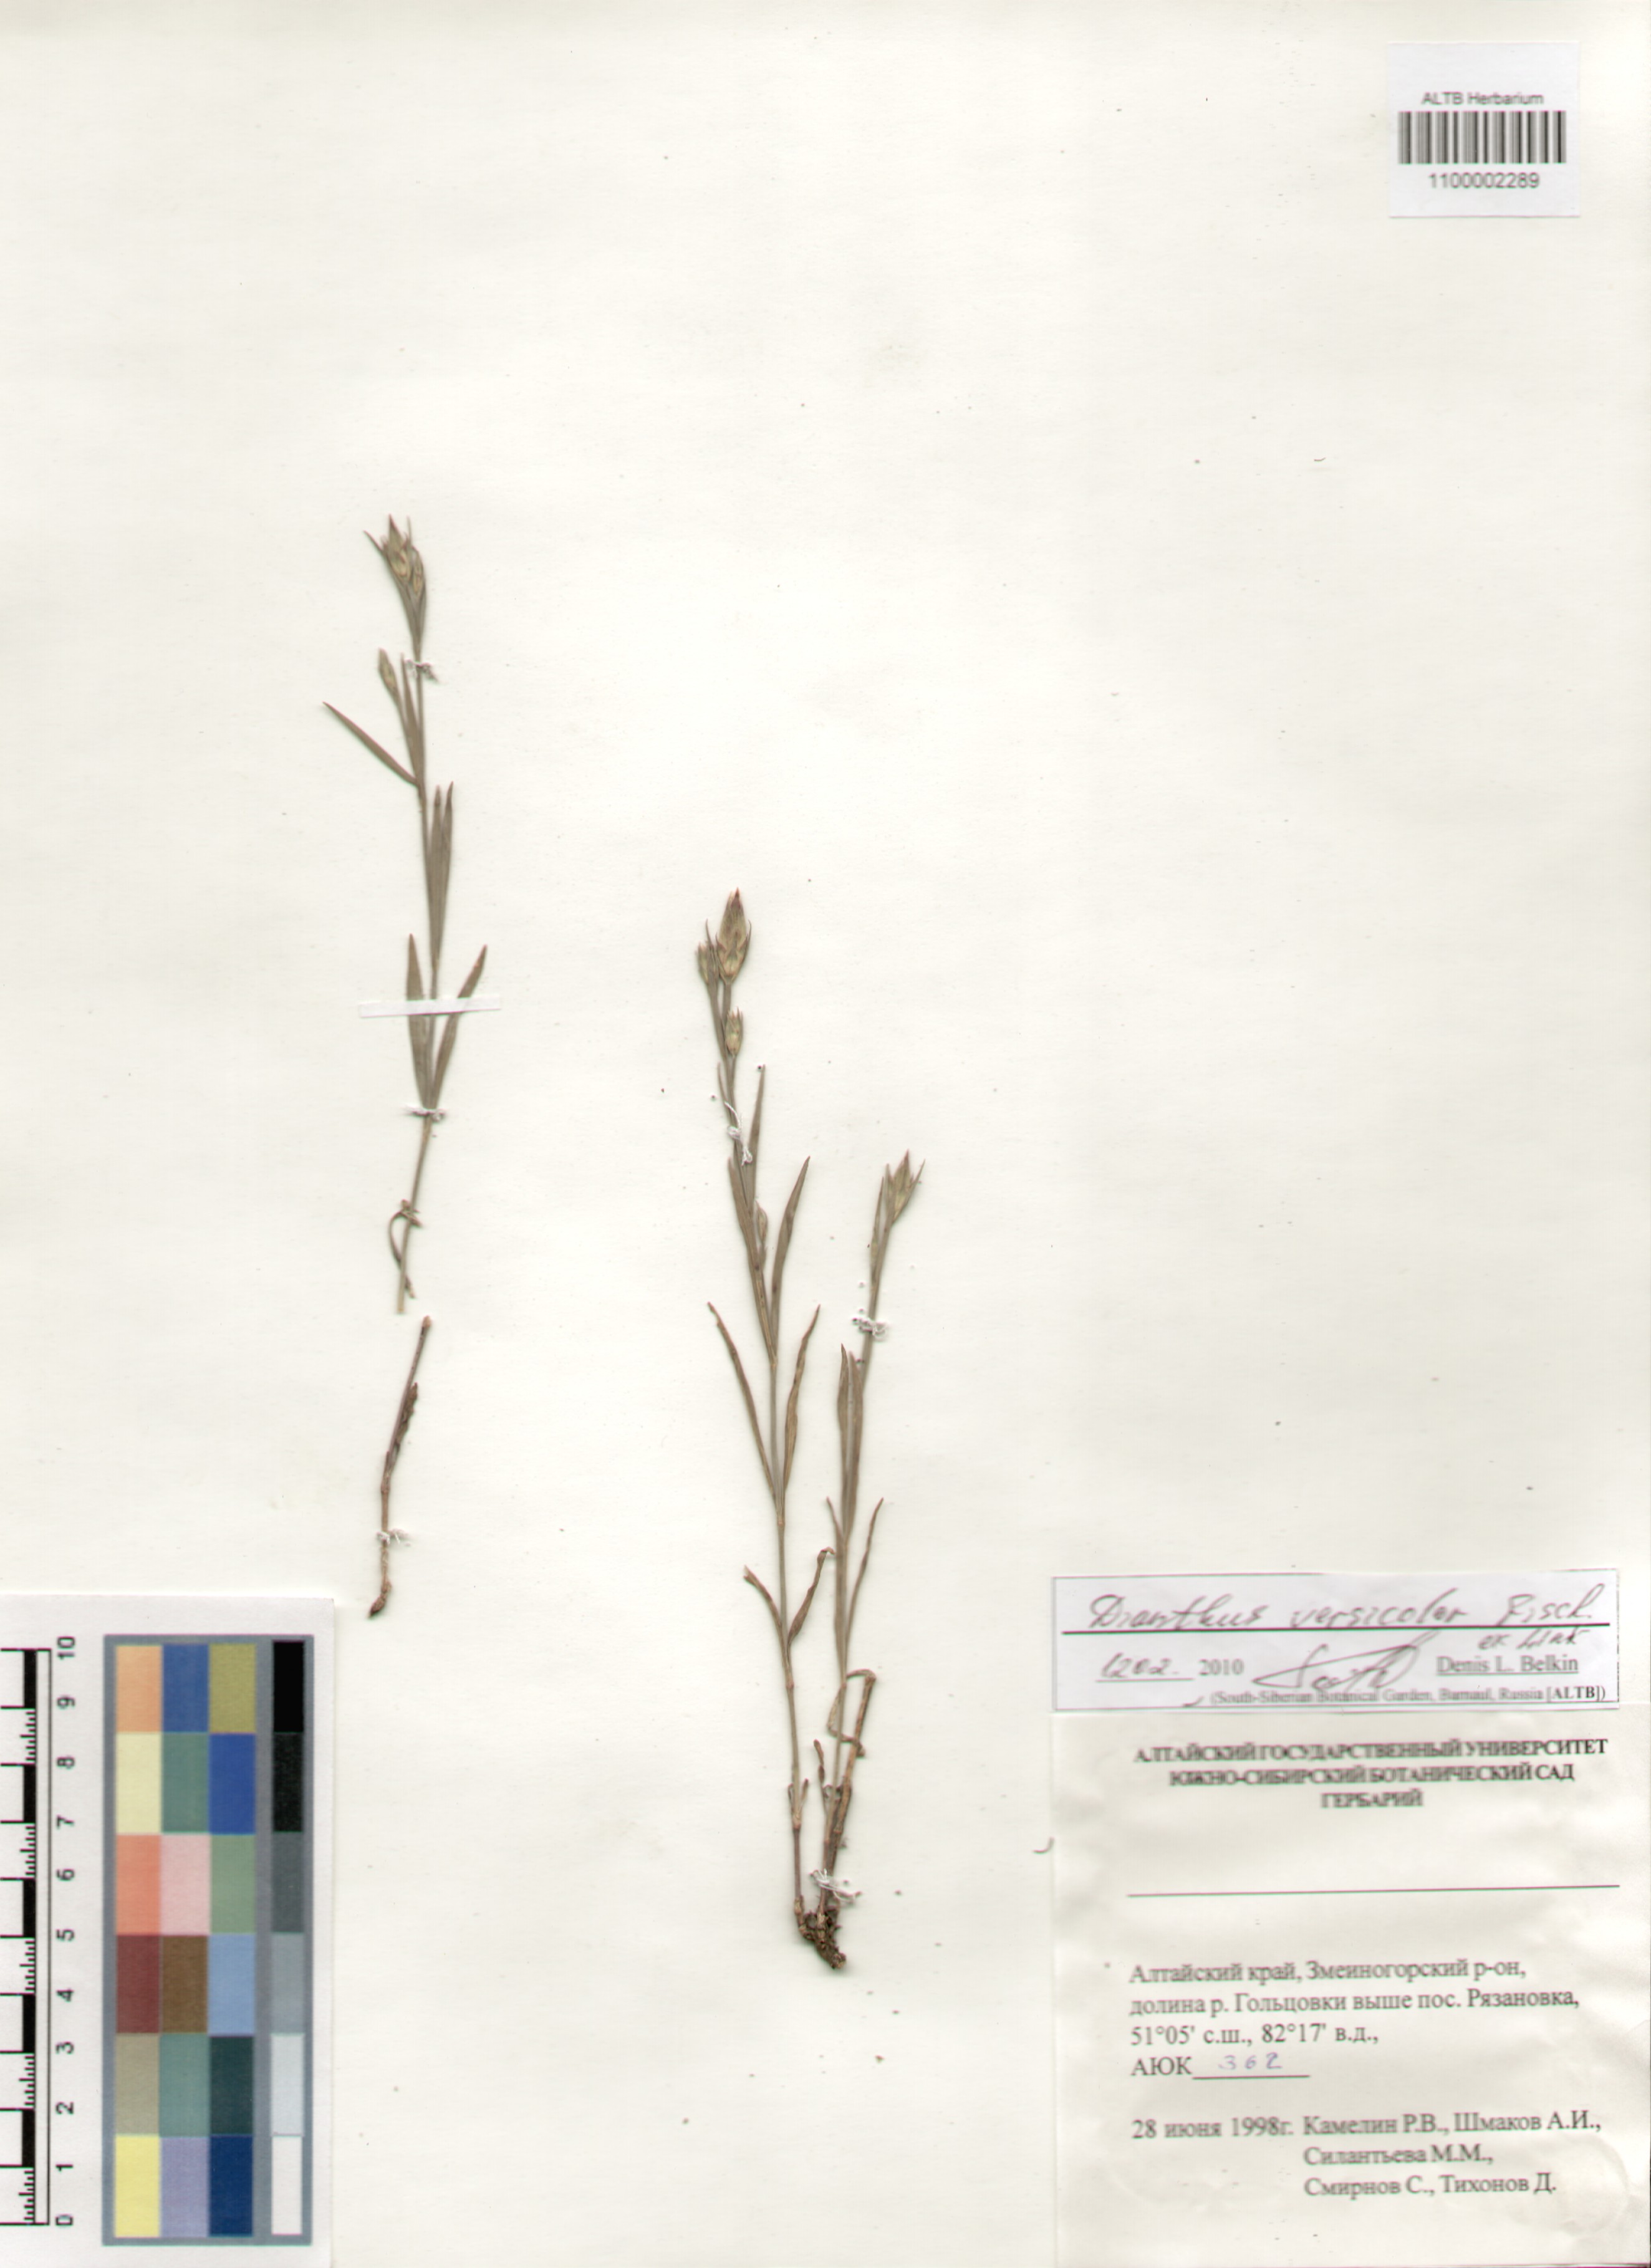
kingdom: Plantae
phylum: Tracheophyta
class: Magnoliopsida
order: Caryophyllales
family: Caryophyllaceae
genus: Dianthus
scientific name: Dianthus chinensis
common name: Rainbow pink
